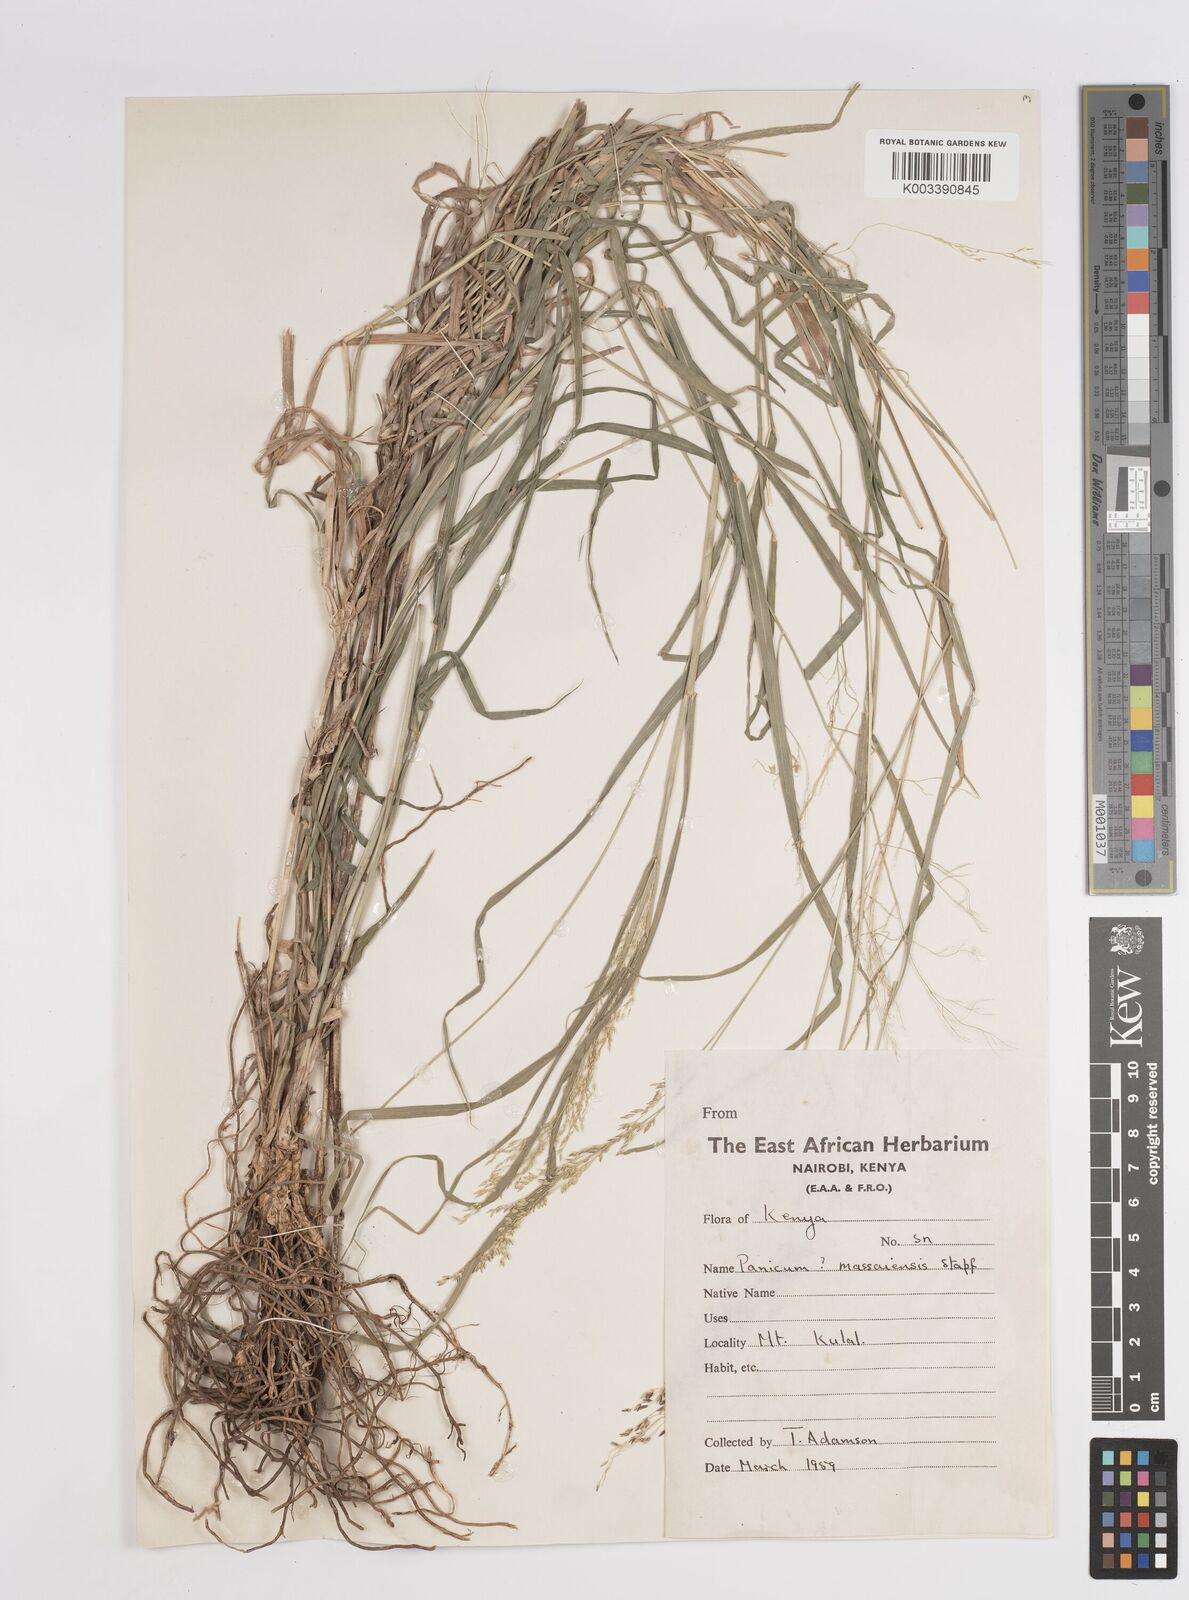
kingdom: Plantae
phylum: Tracheophyta
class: Liliopsida
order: Poales
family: Poaceae
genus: Panicum
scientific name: Panicum coloratum
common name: Kleingrass
